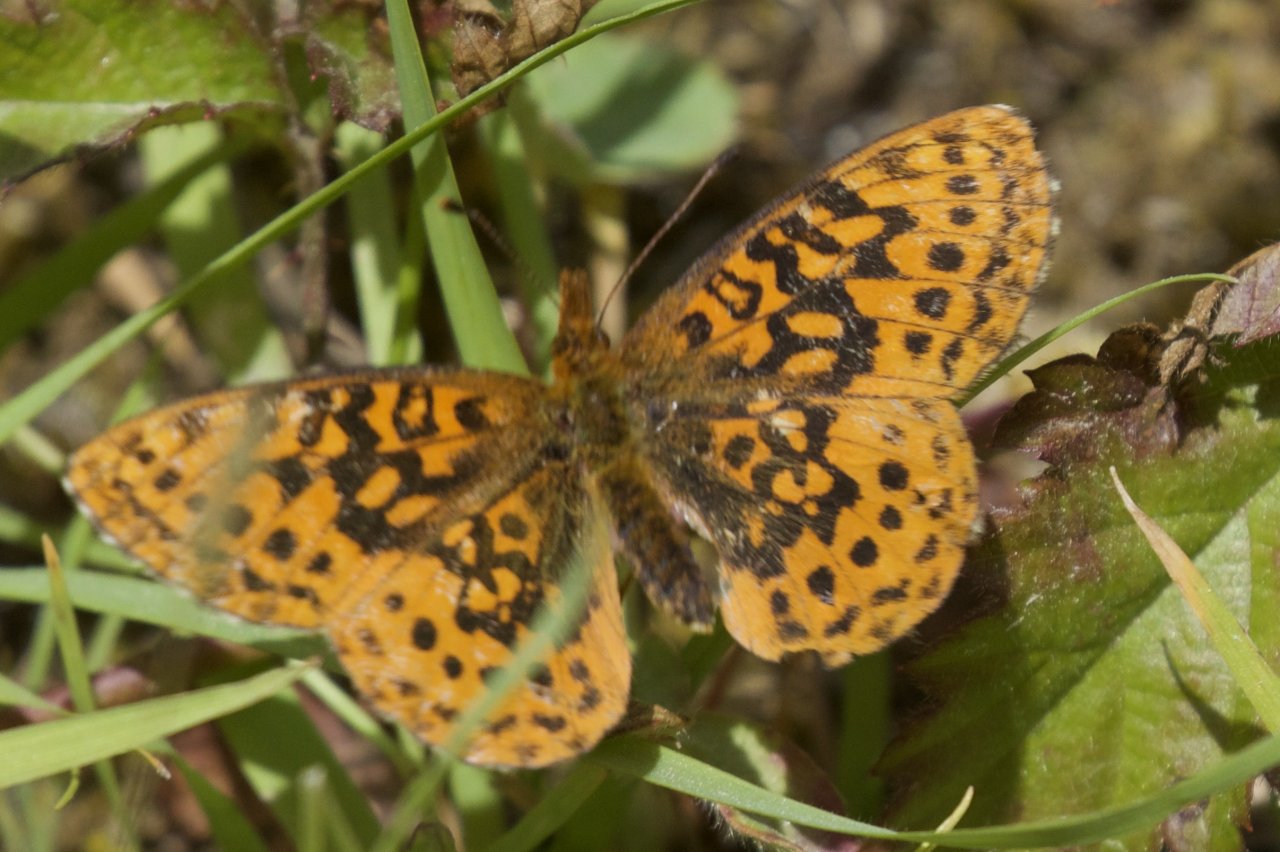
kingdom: Animalia
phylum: Arthropoda
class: Insecta
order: Lepidoptera
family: Nymphalidae
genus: Boloria
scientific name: Boloria epithore
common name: Pacific Fritillary
